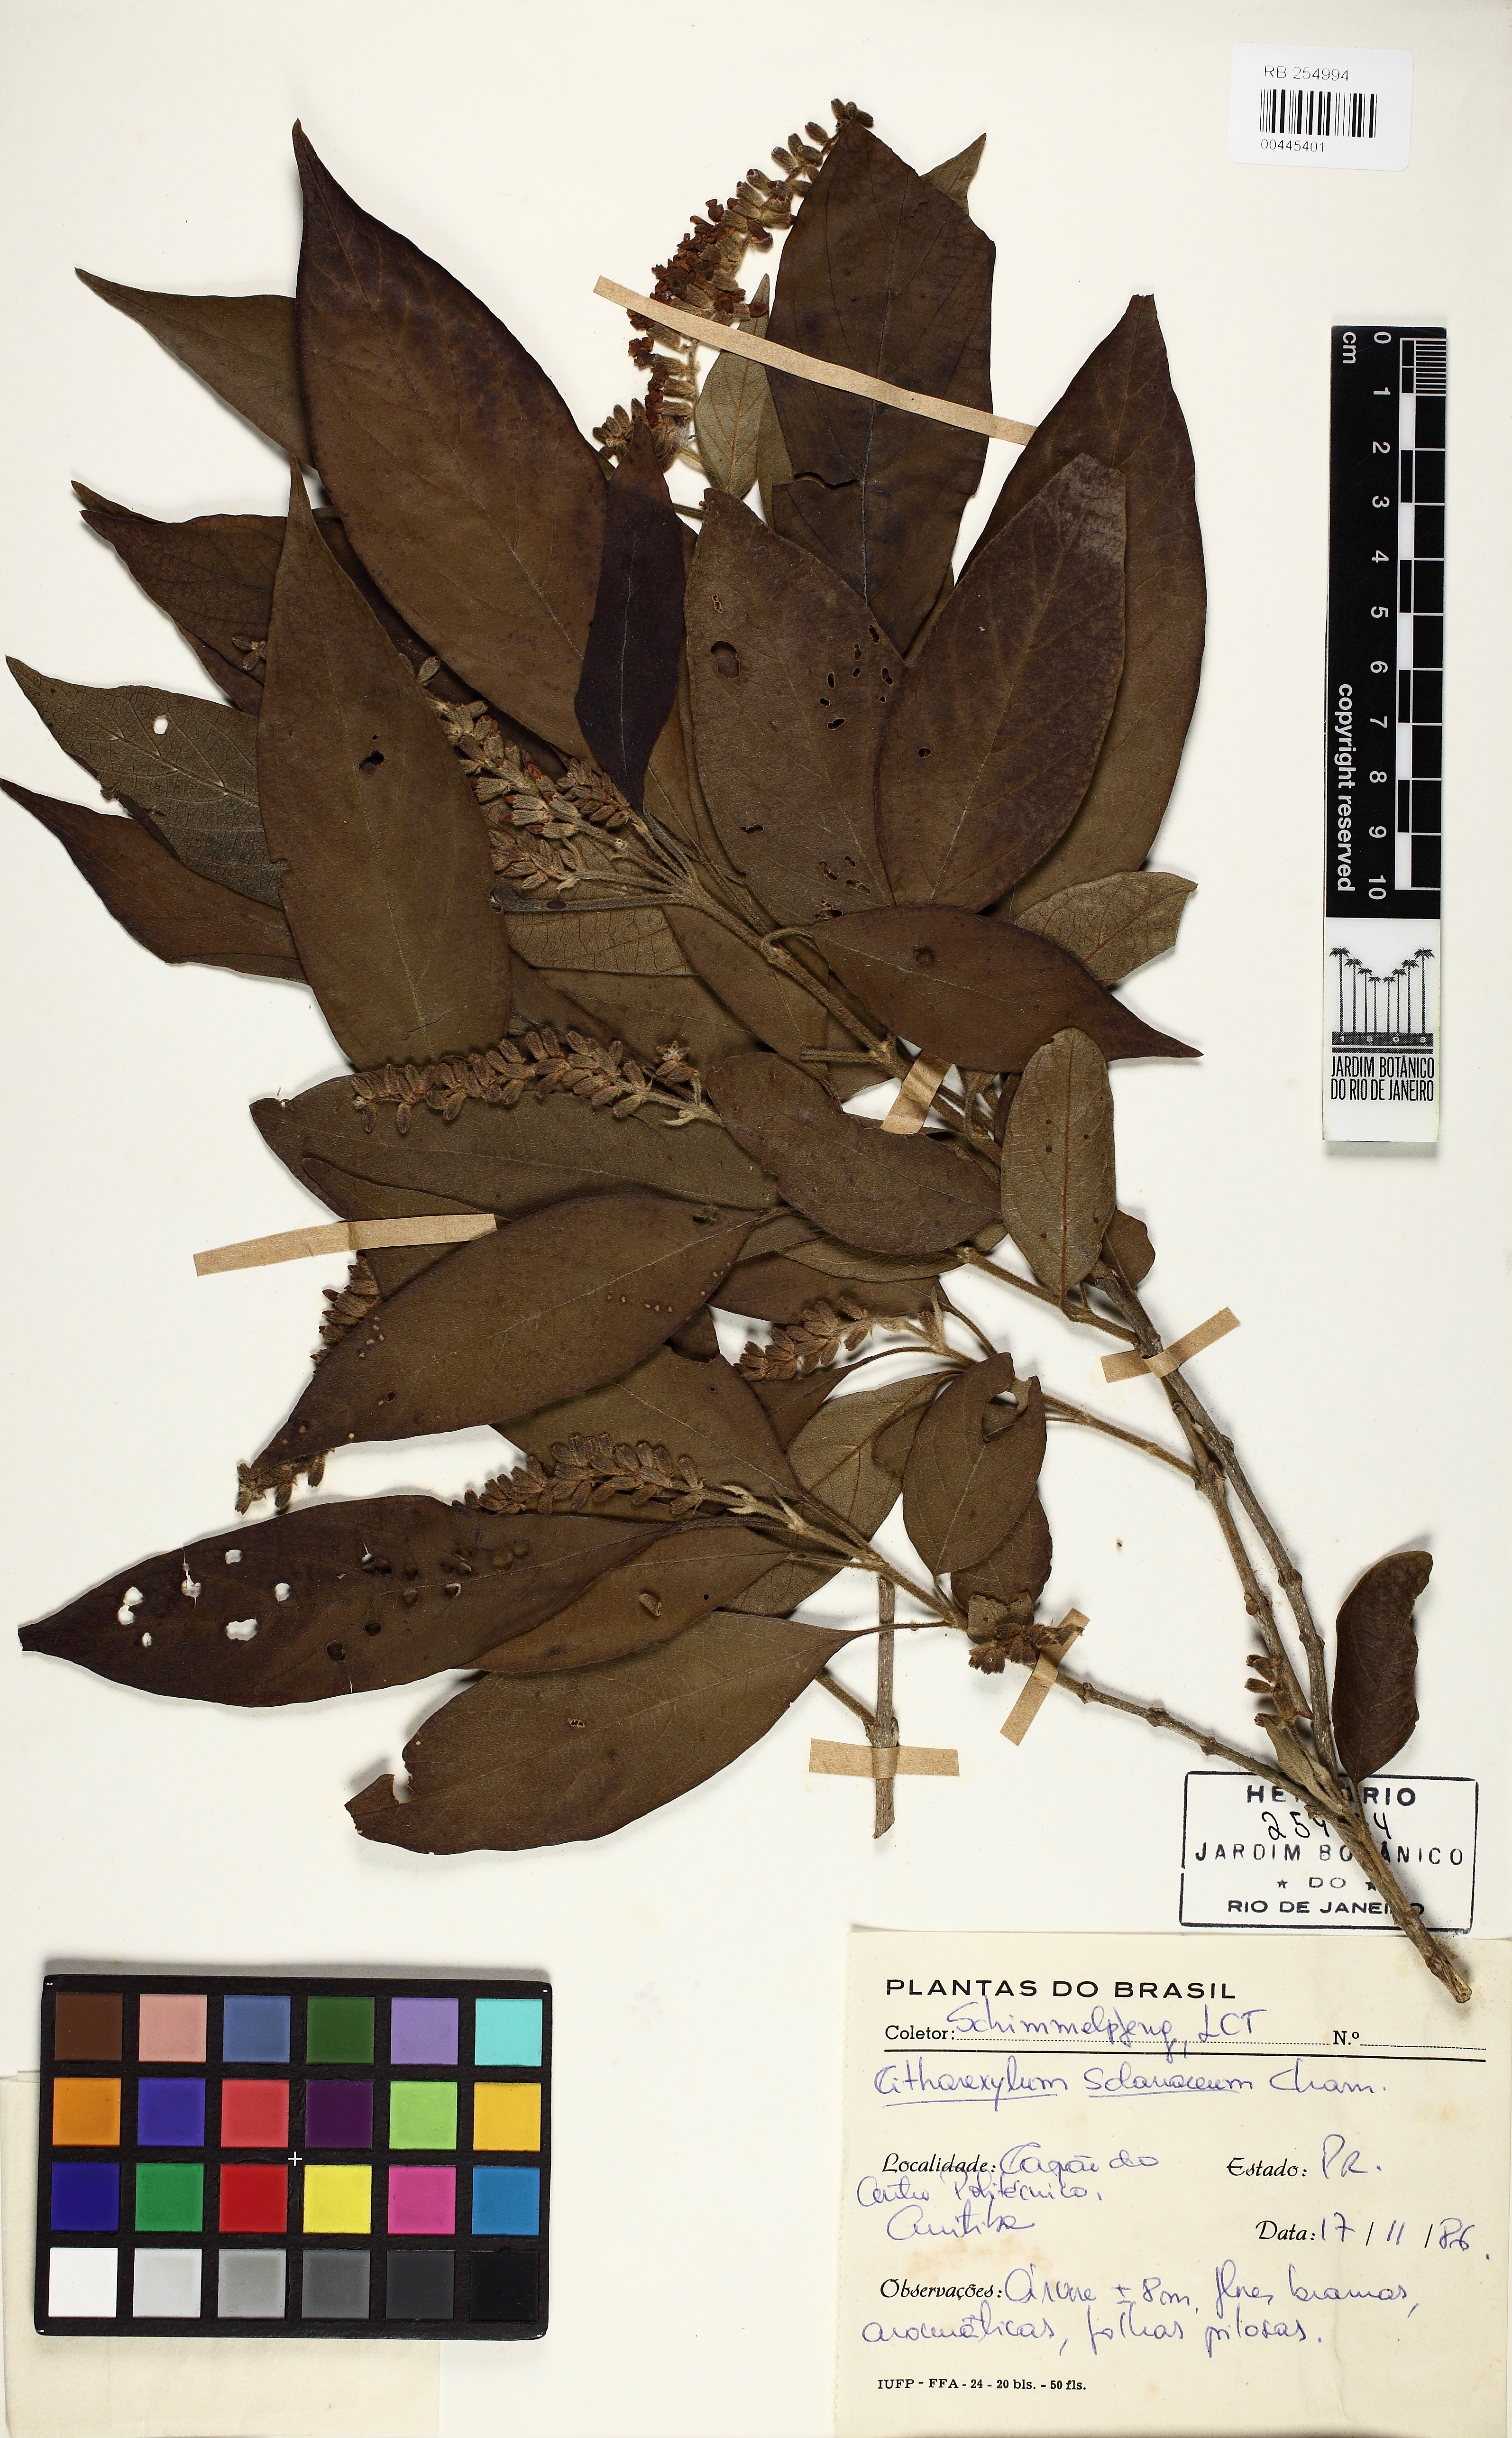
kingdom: Plantae
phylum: Tracheophyta
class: Magnoliopsida
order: Lamiales
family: Verbenaceae
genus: Citharexylum
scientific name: Citharexylum solanaceum
